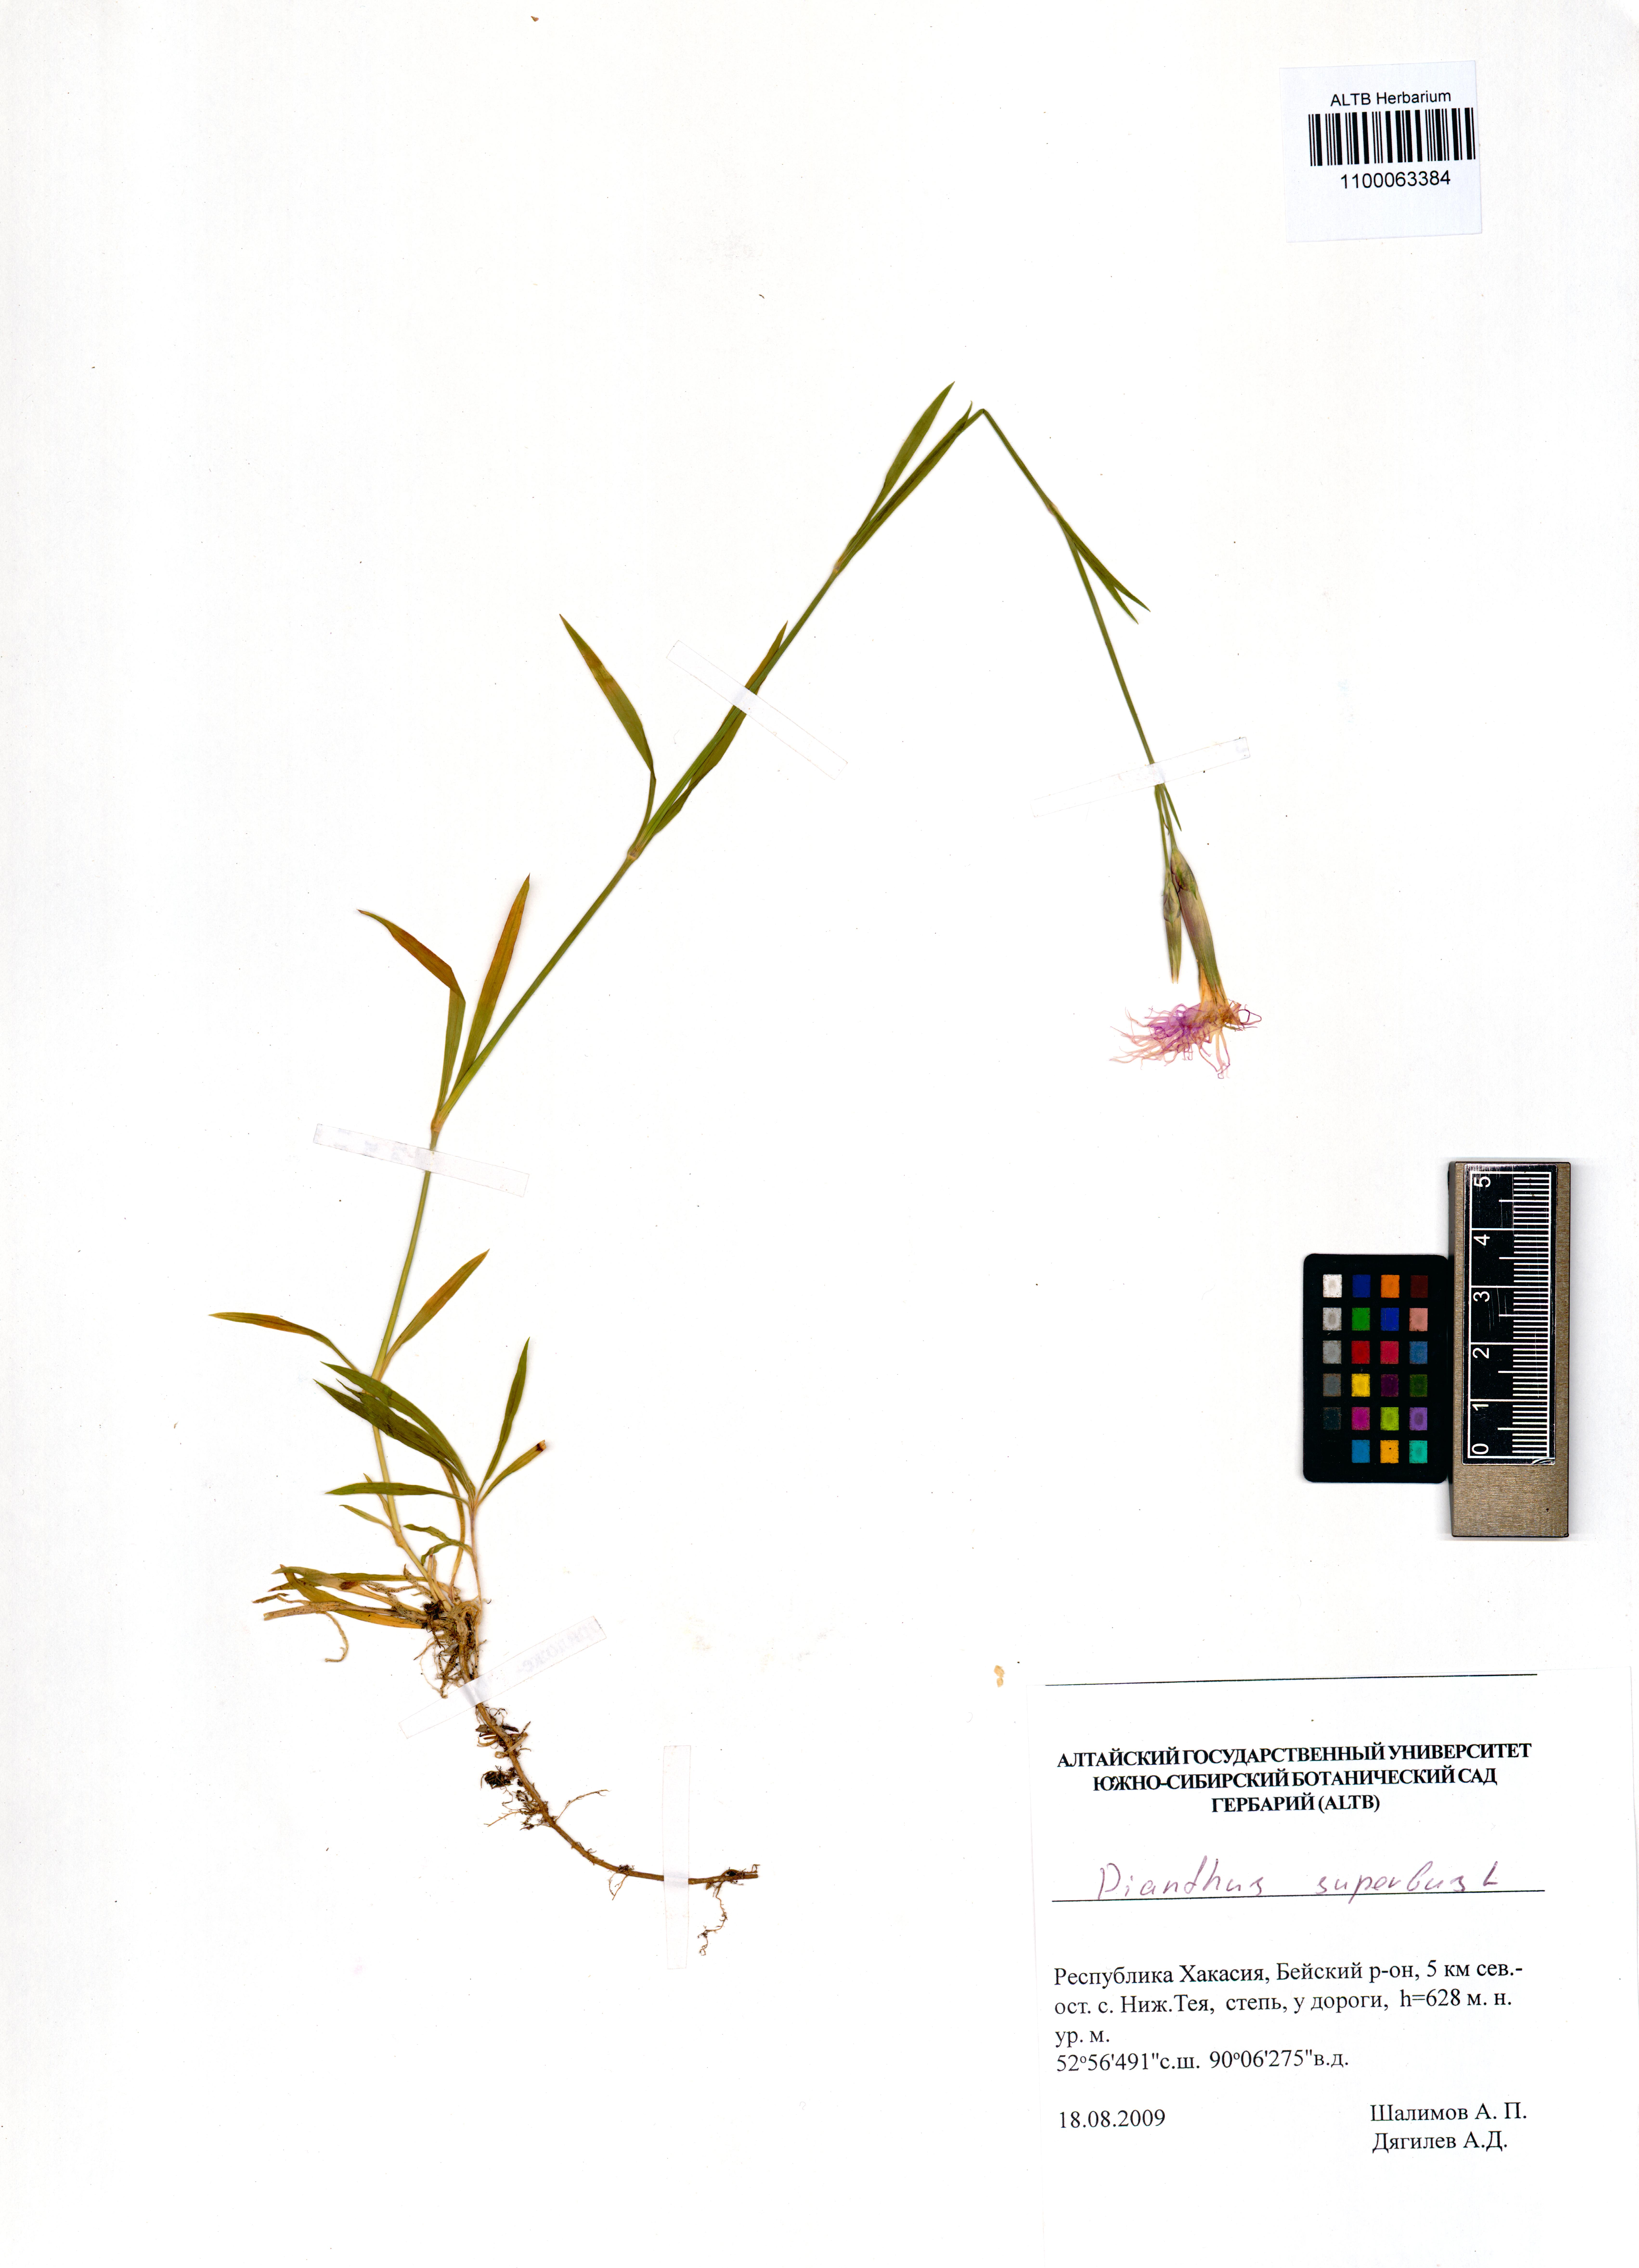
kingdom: Plantae
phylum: Tracheophyta
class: Magnoliopsida
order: Caryophyllales
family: Caryophyllaceae
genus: Dianthus
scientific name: Dianthus superbus
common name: Fringed pink
